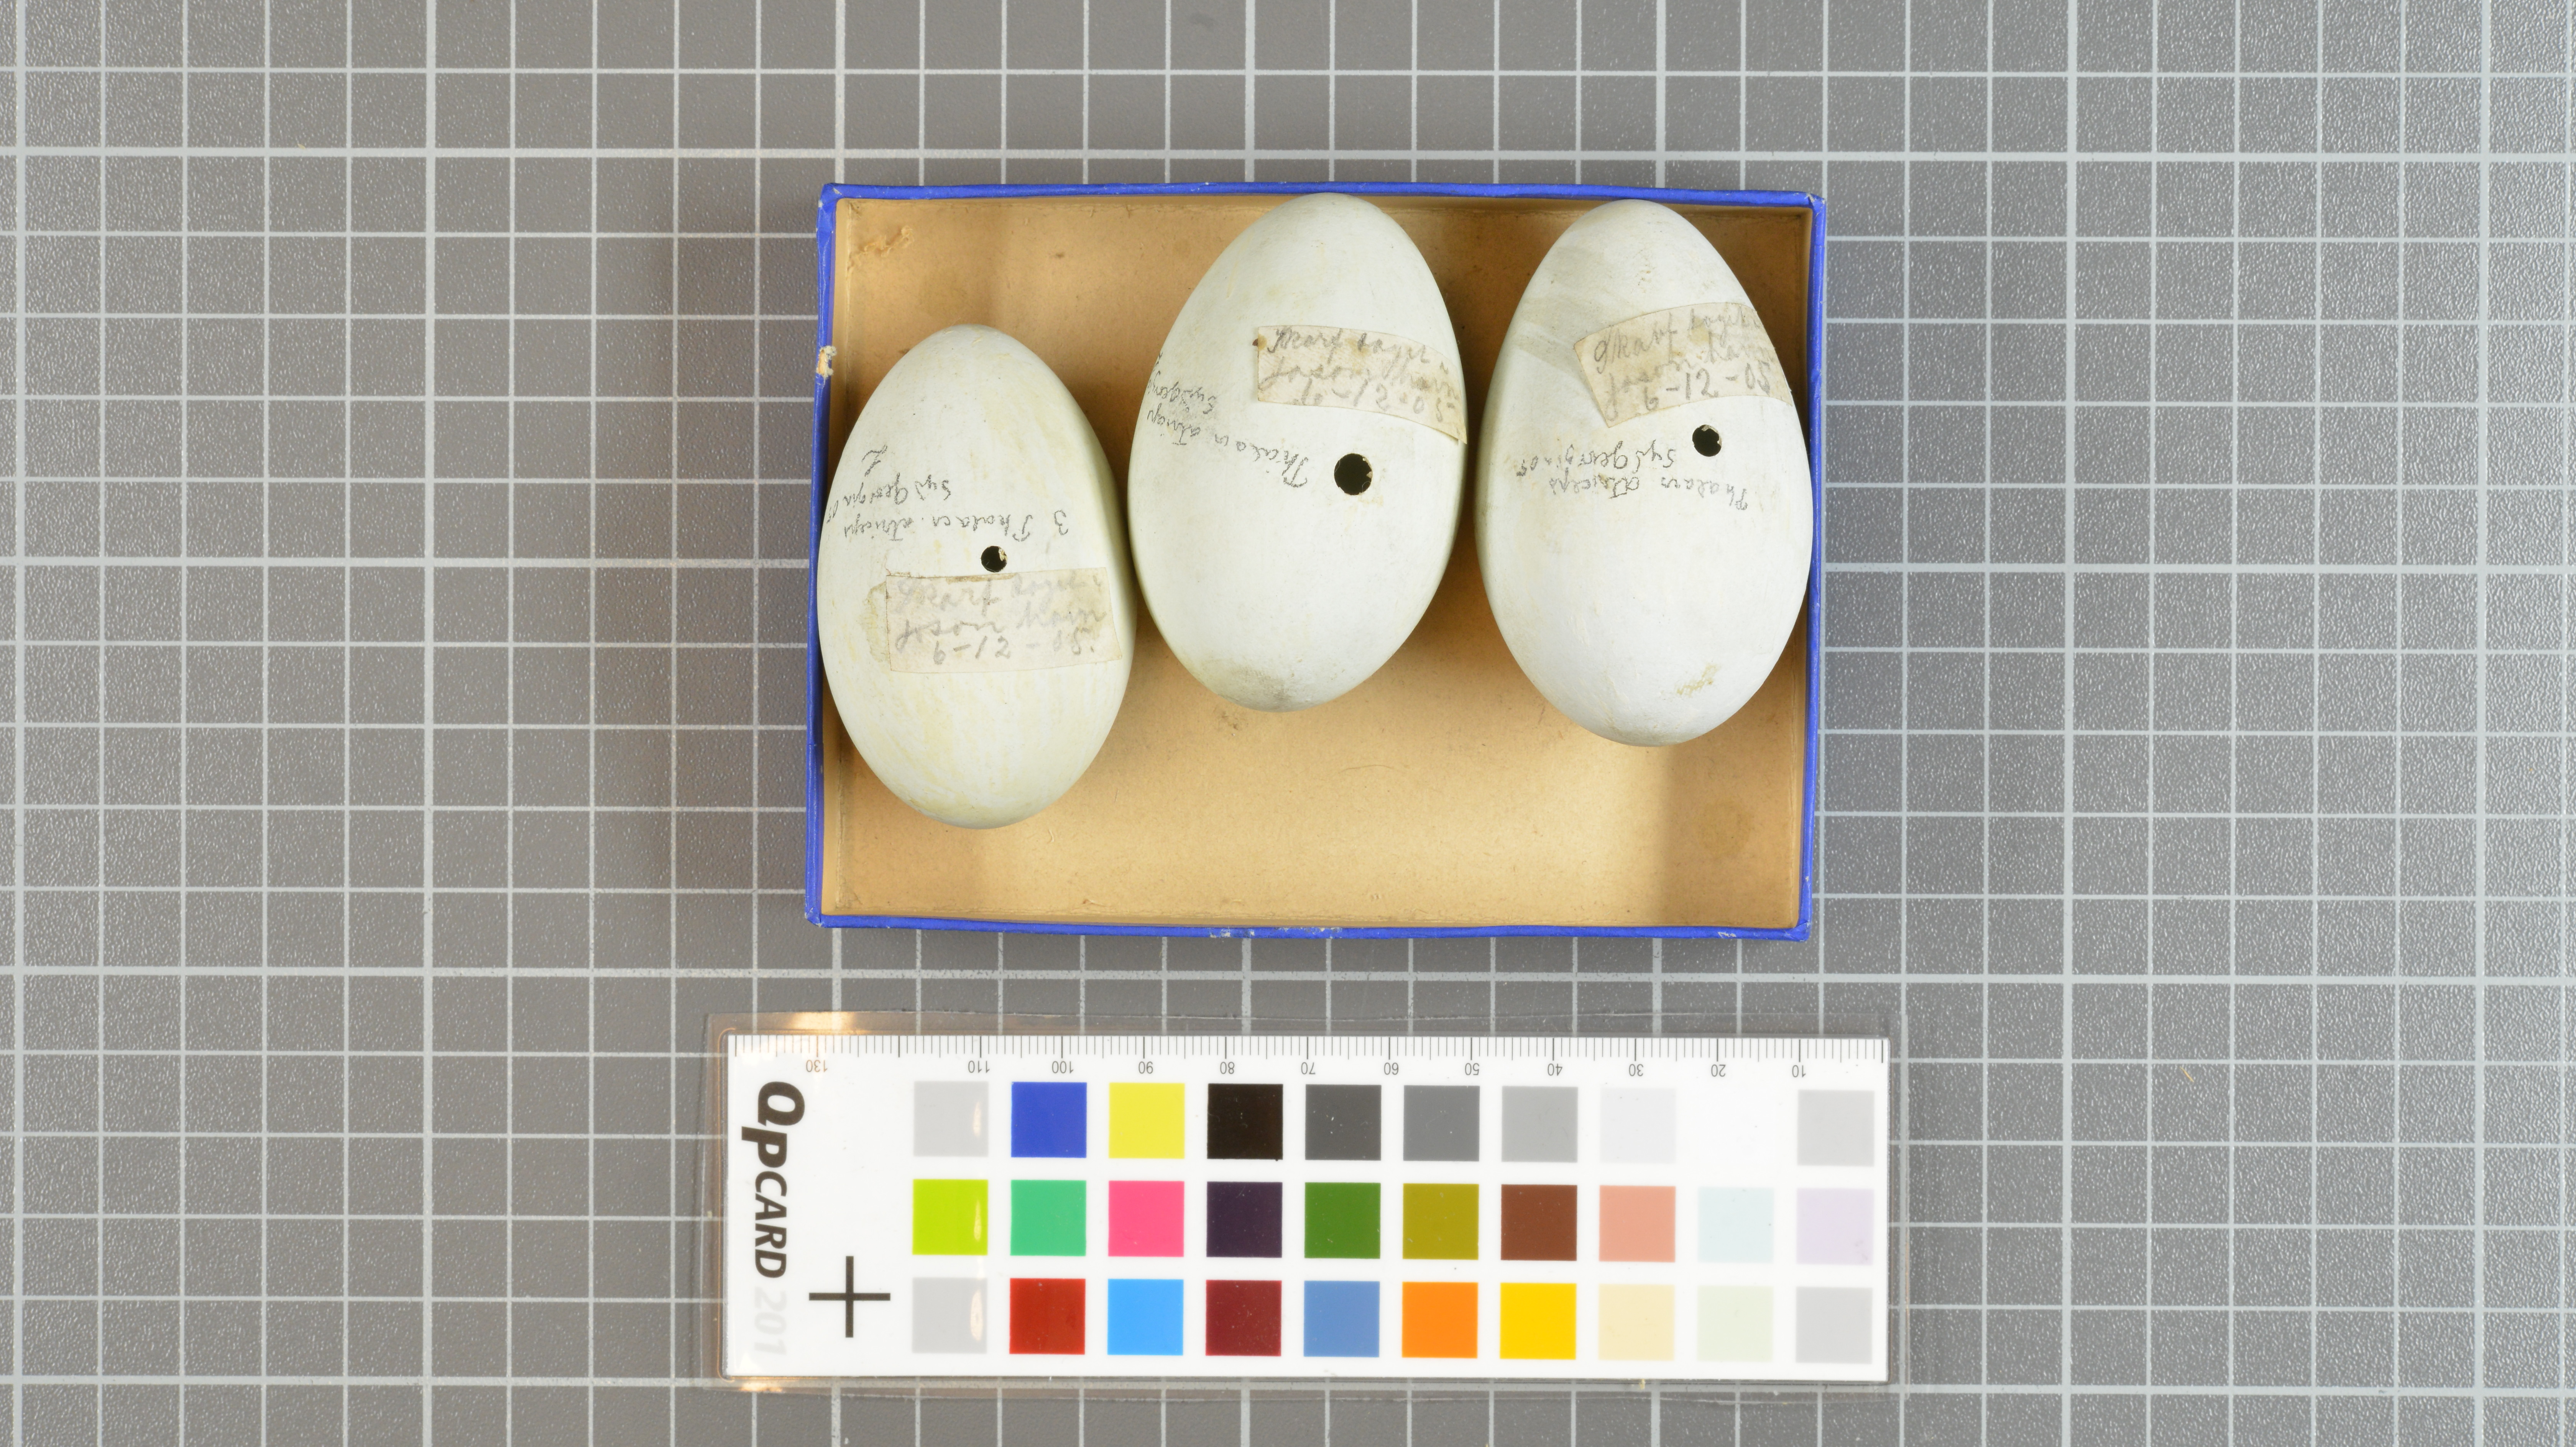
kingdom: Animalia
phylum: Chordata
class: Aves
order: Suliformes
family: Phalacrocoracidae
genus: Leucocarbo
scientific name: Leucocarbo atriceps
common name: Imperial shag
